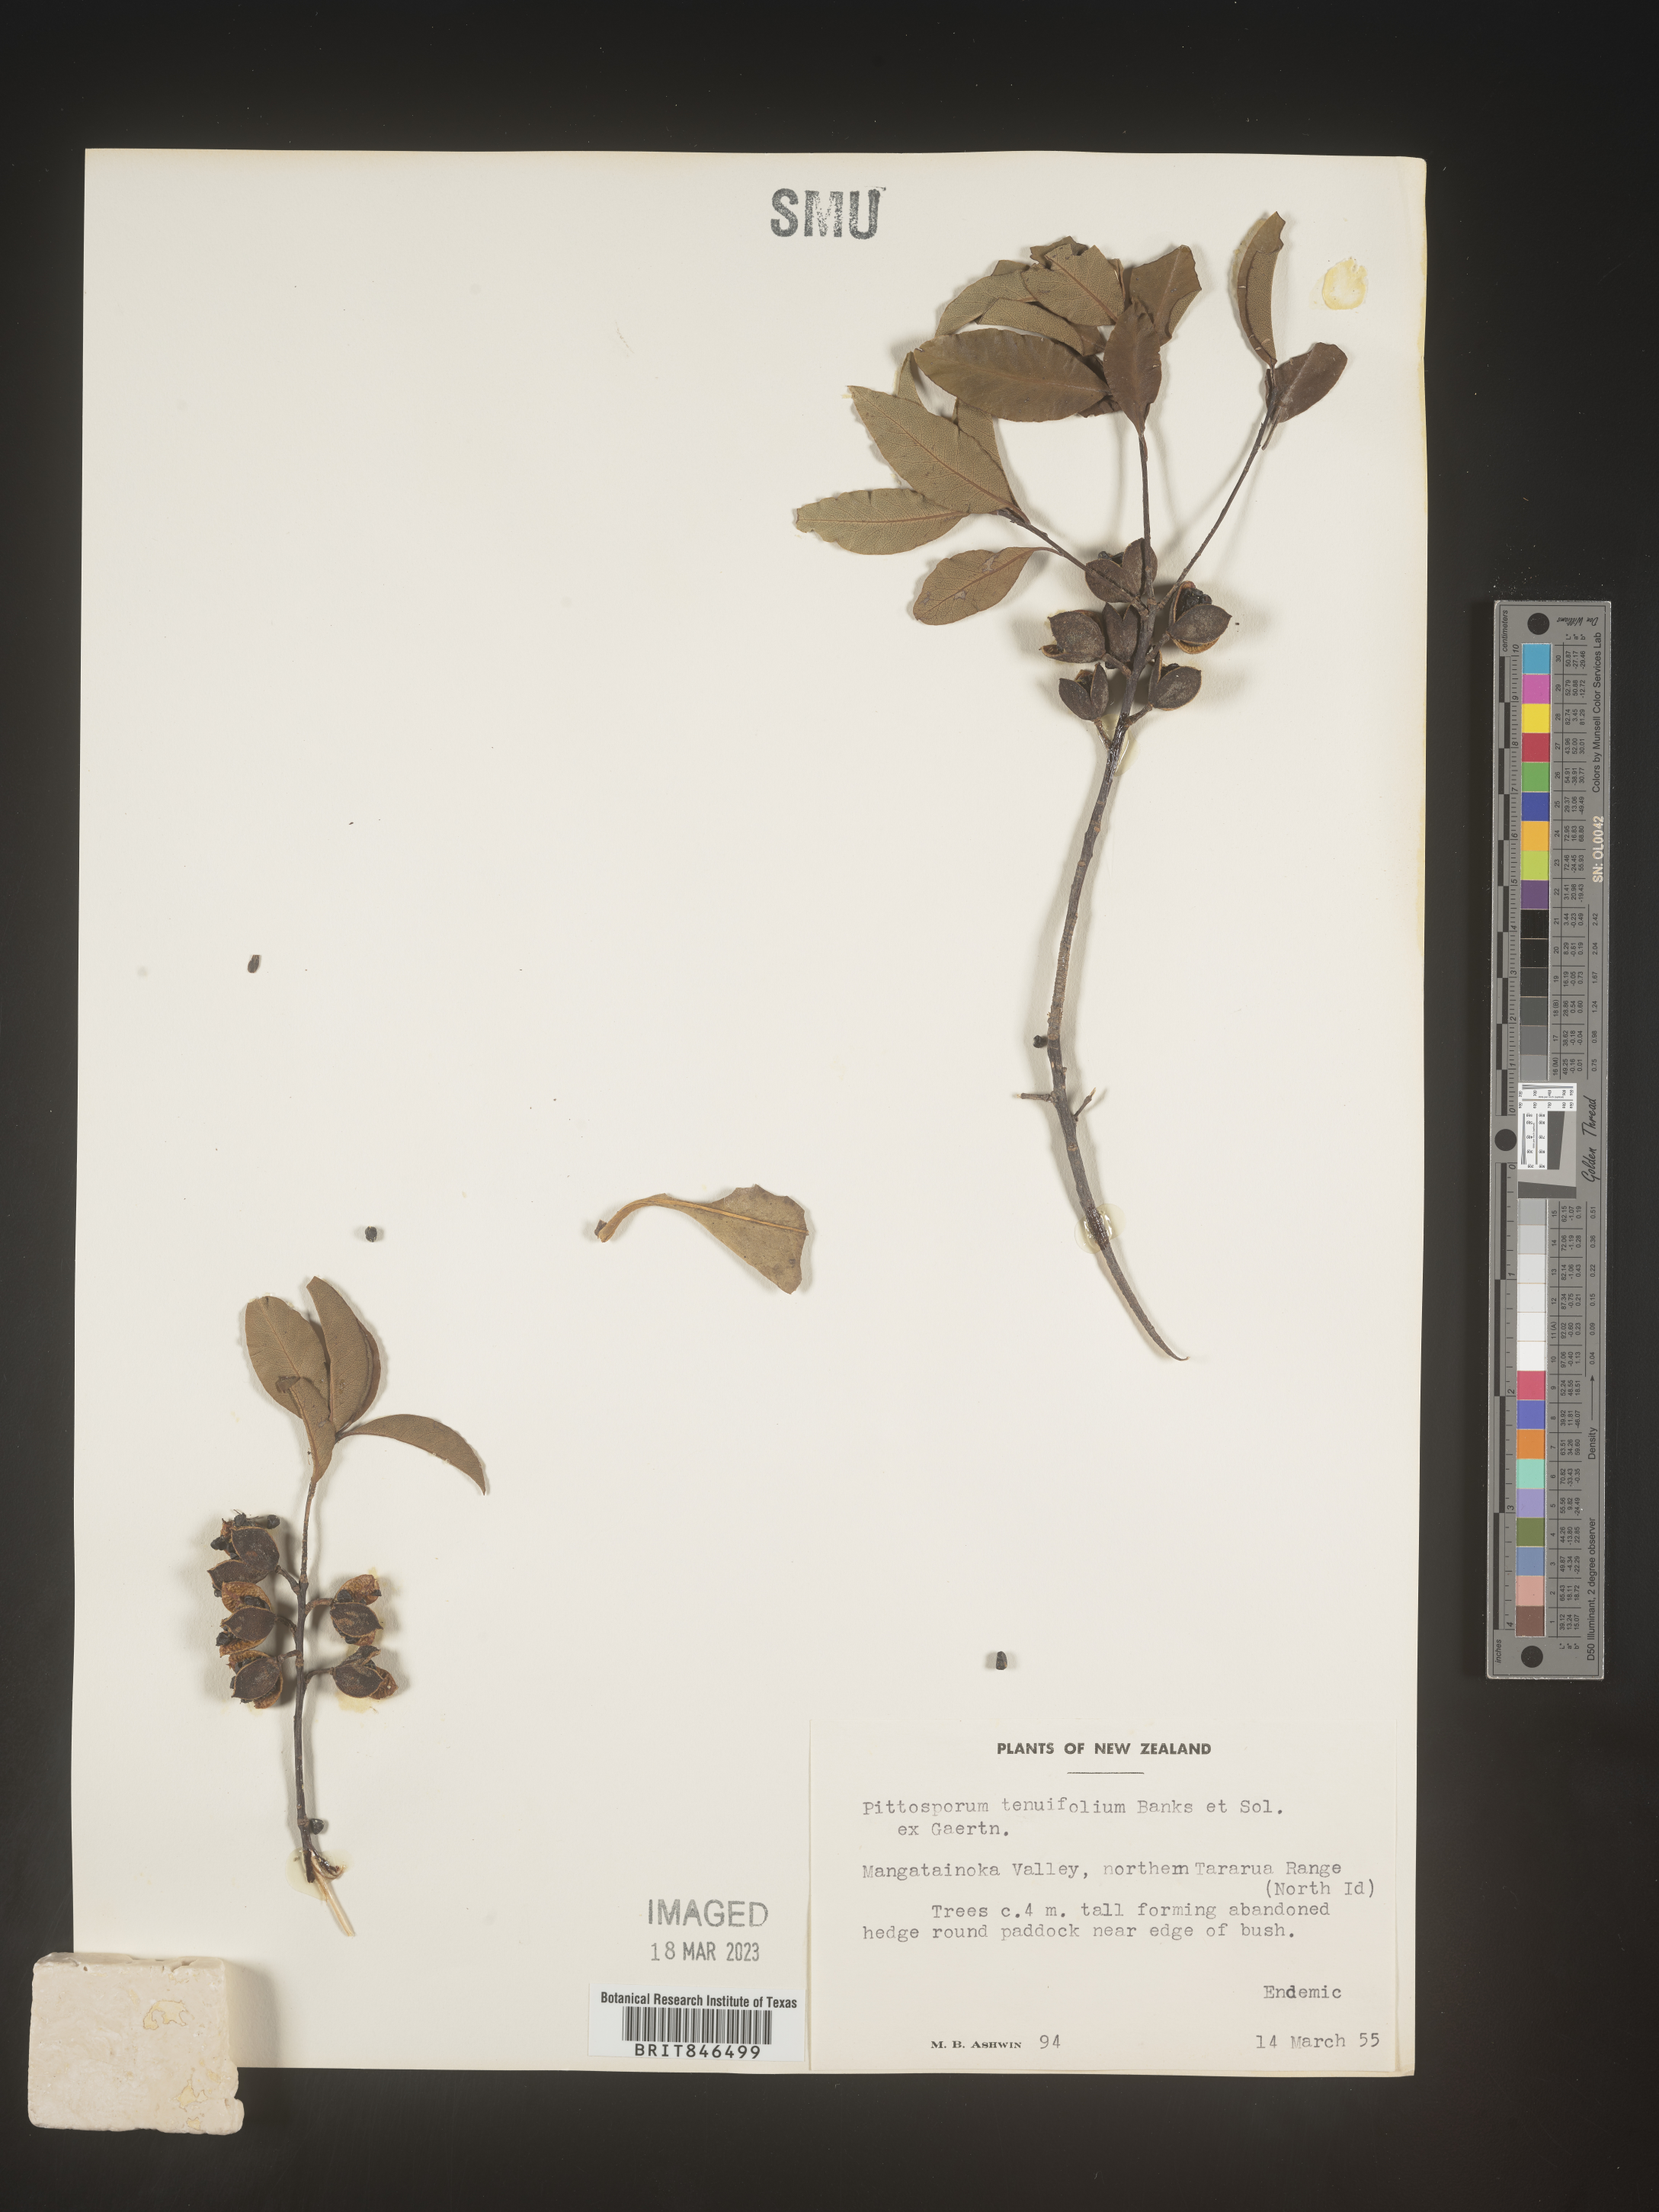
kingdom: Plantae
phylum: Tracheophyta
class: Magnoliopsida
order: Apiales
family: Pittosporaceae
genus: Pittosporum
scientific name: Pittosporum
